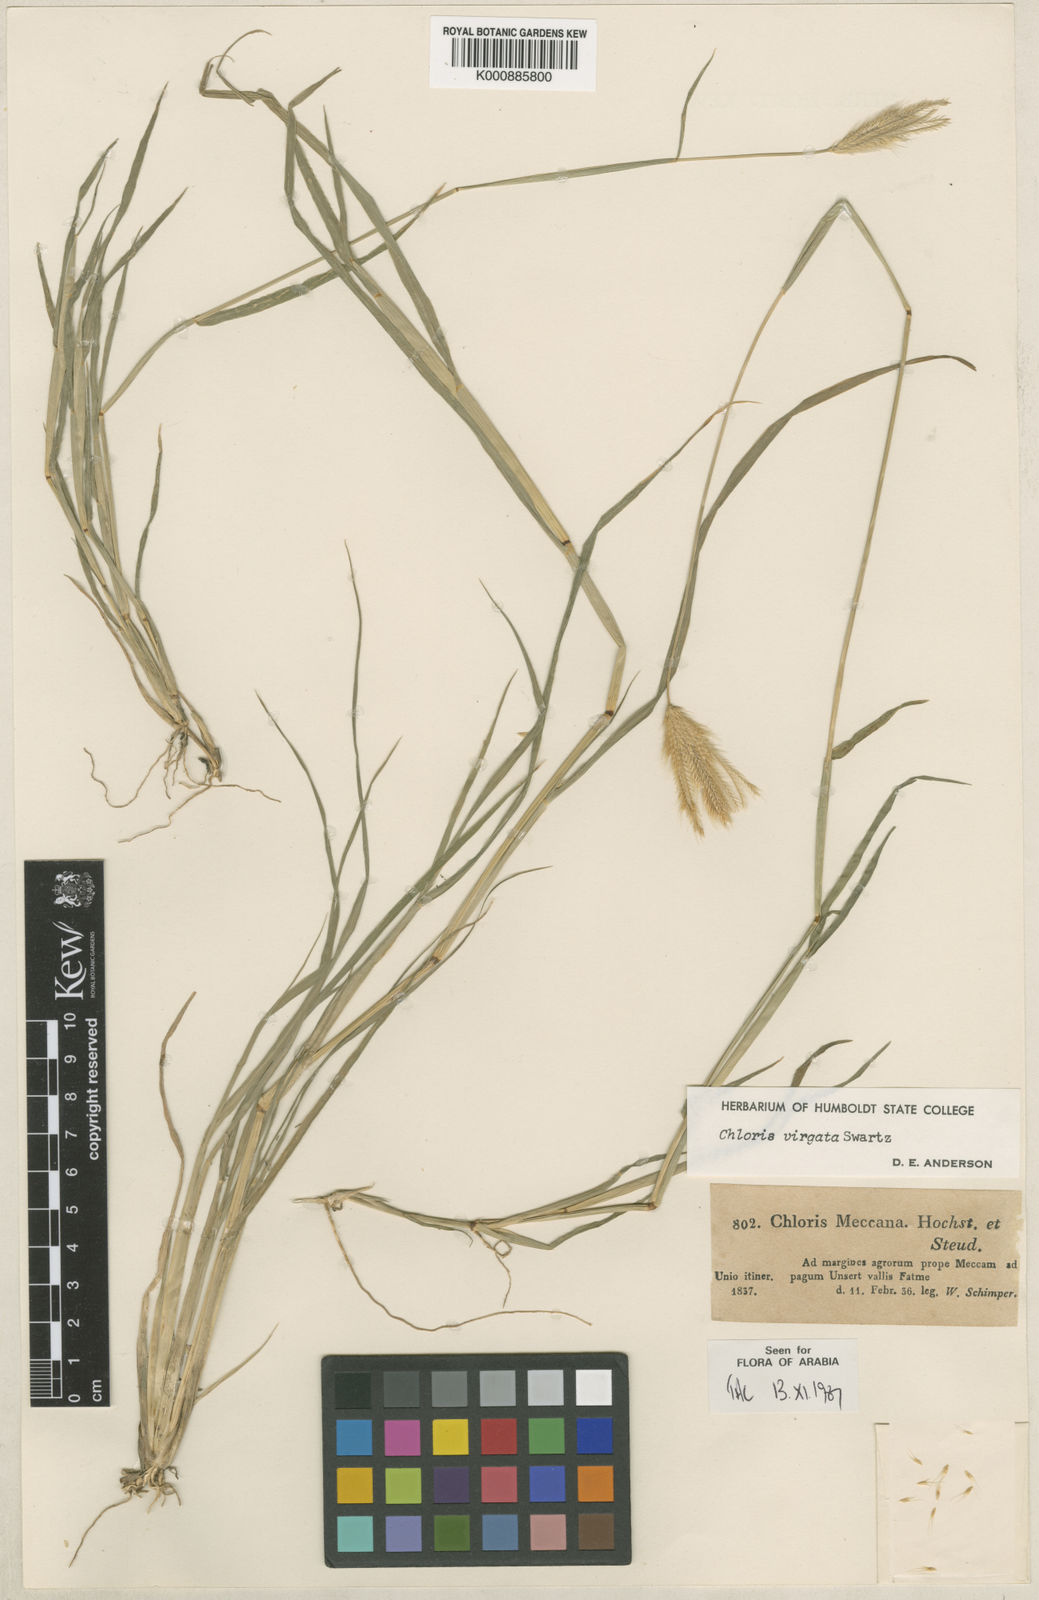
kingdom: Plantae
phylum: Tracheophyta
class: Liliopsida
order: Poales
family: Poaceae
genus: Chloris
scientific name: Chloris virgata
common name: Feathery rhodes-grass
